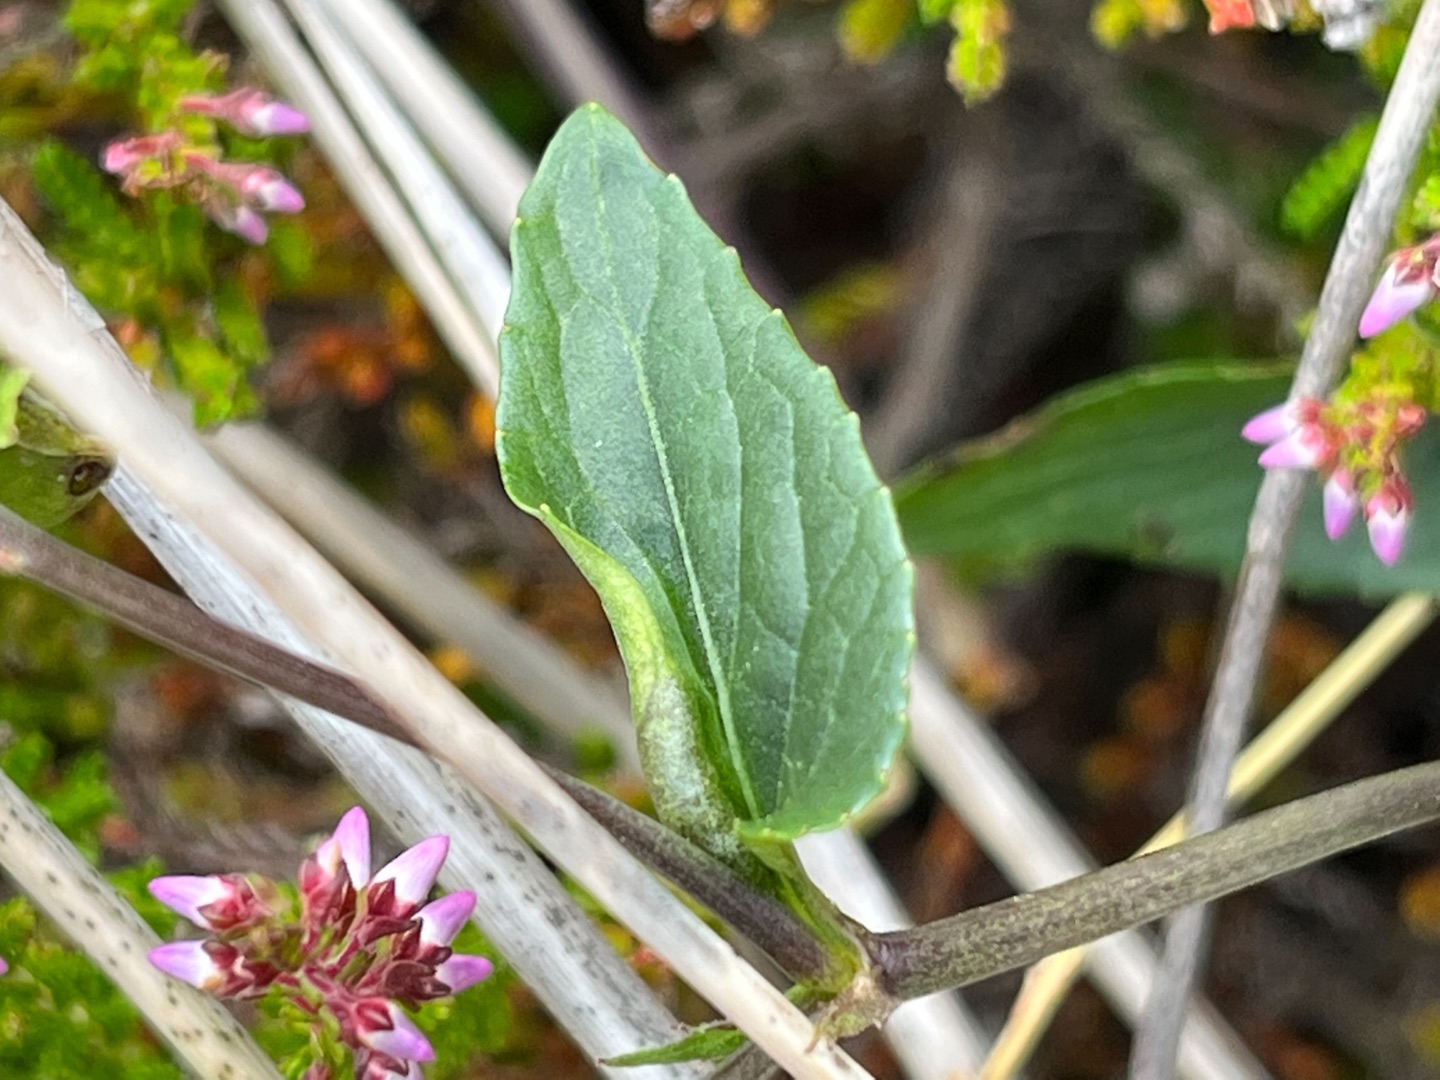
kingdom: Animalia
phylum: Arthropoda
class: Insecta
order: Diptera
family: Cecidomyiidae
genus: Dasineura
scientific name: Dasineura affinis
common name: Violgalmyg
